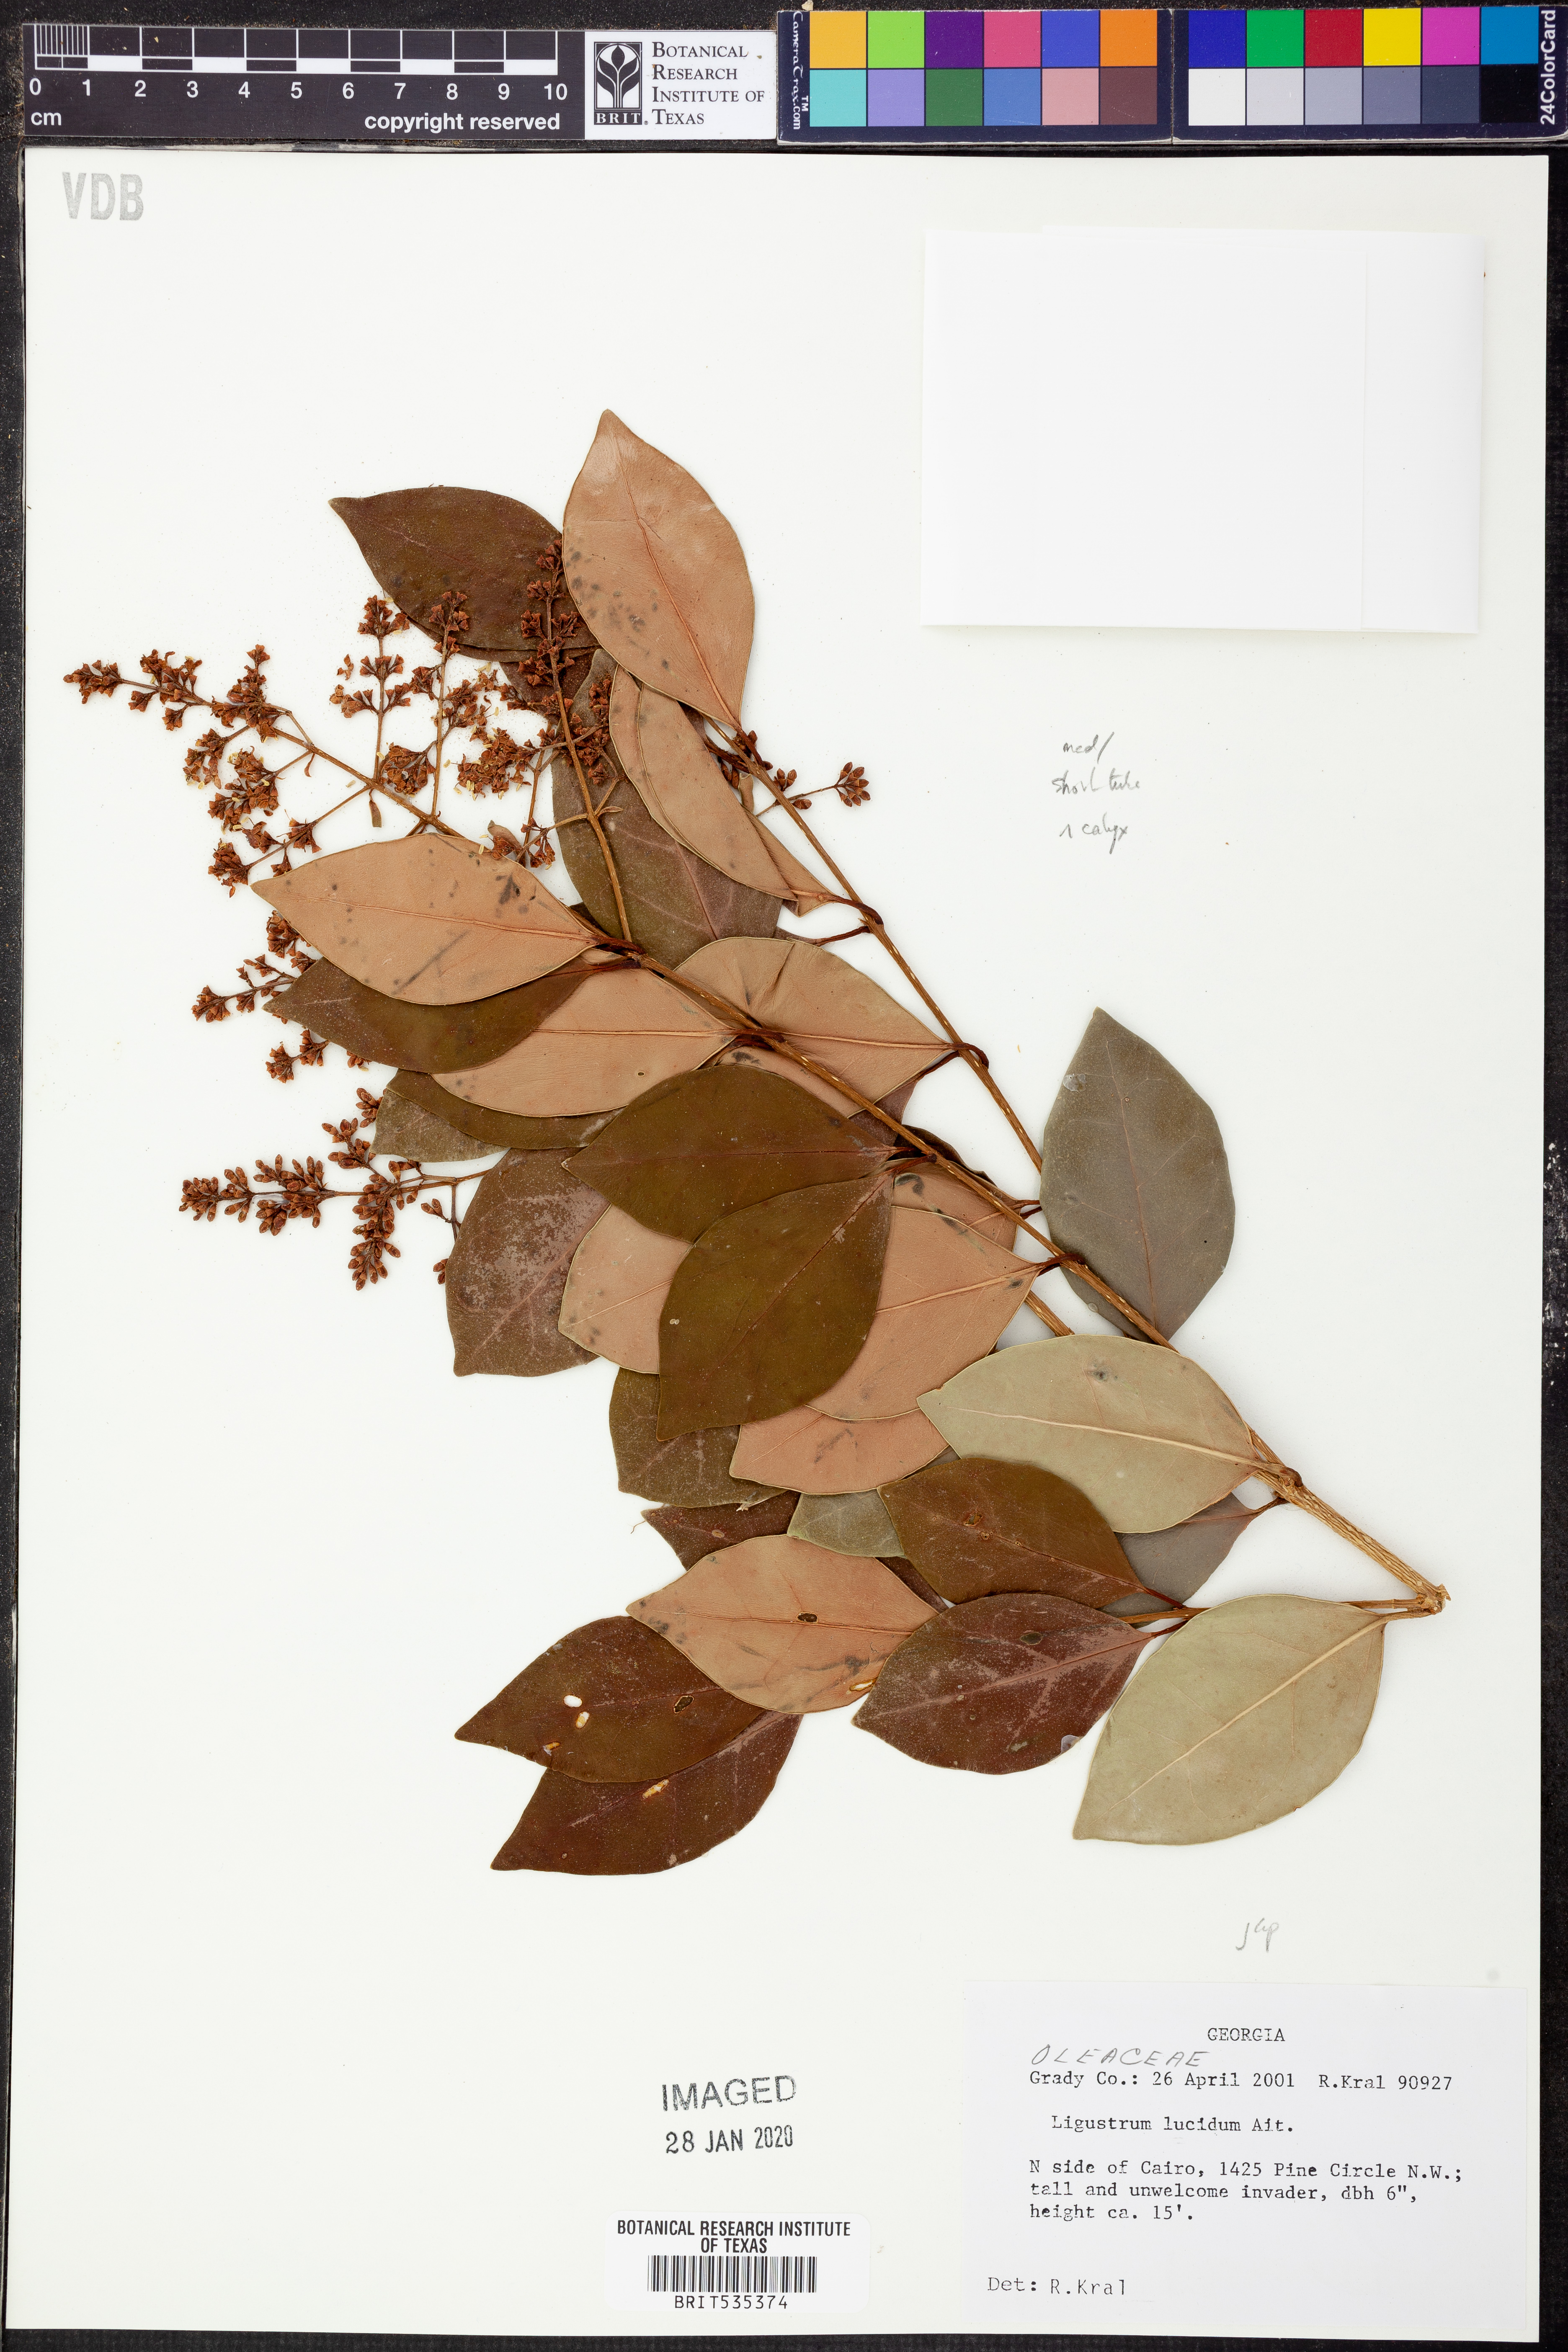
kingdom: Plantae
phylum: Tracheophyta
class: Magnoliopsida
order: Lamiales
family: Oleaceae
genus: Ligustrum
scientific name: Ligustrum lucidum
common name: Glossy privet
